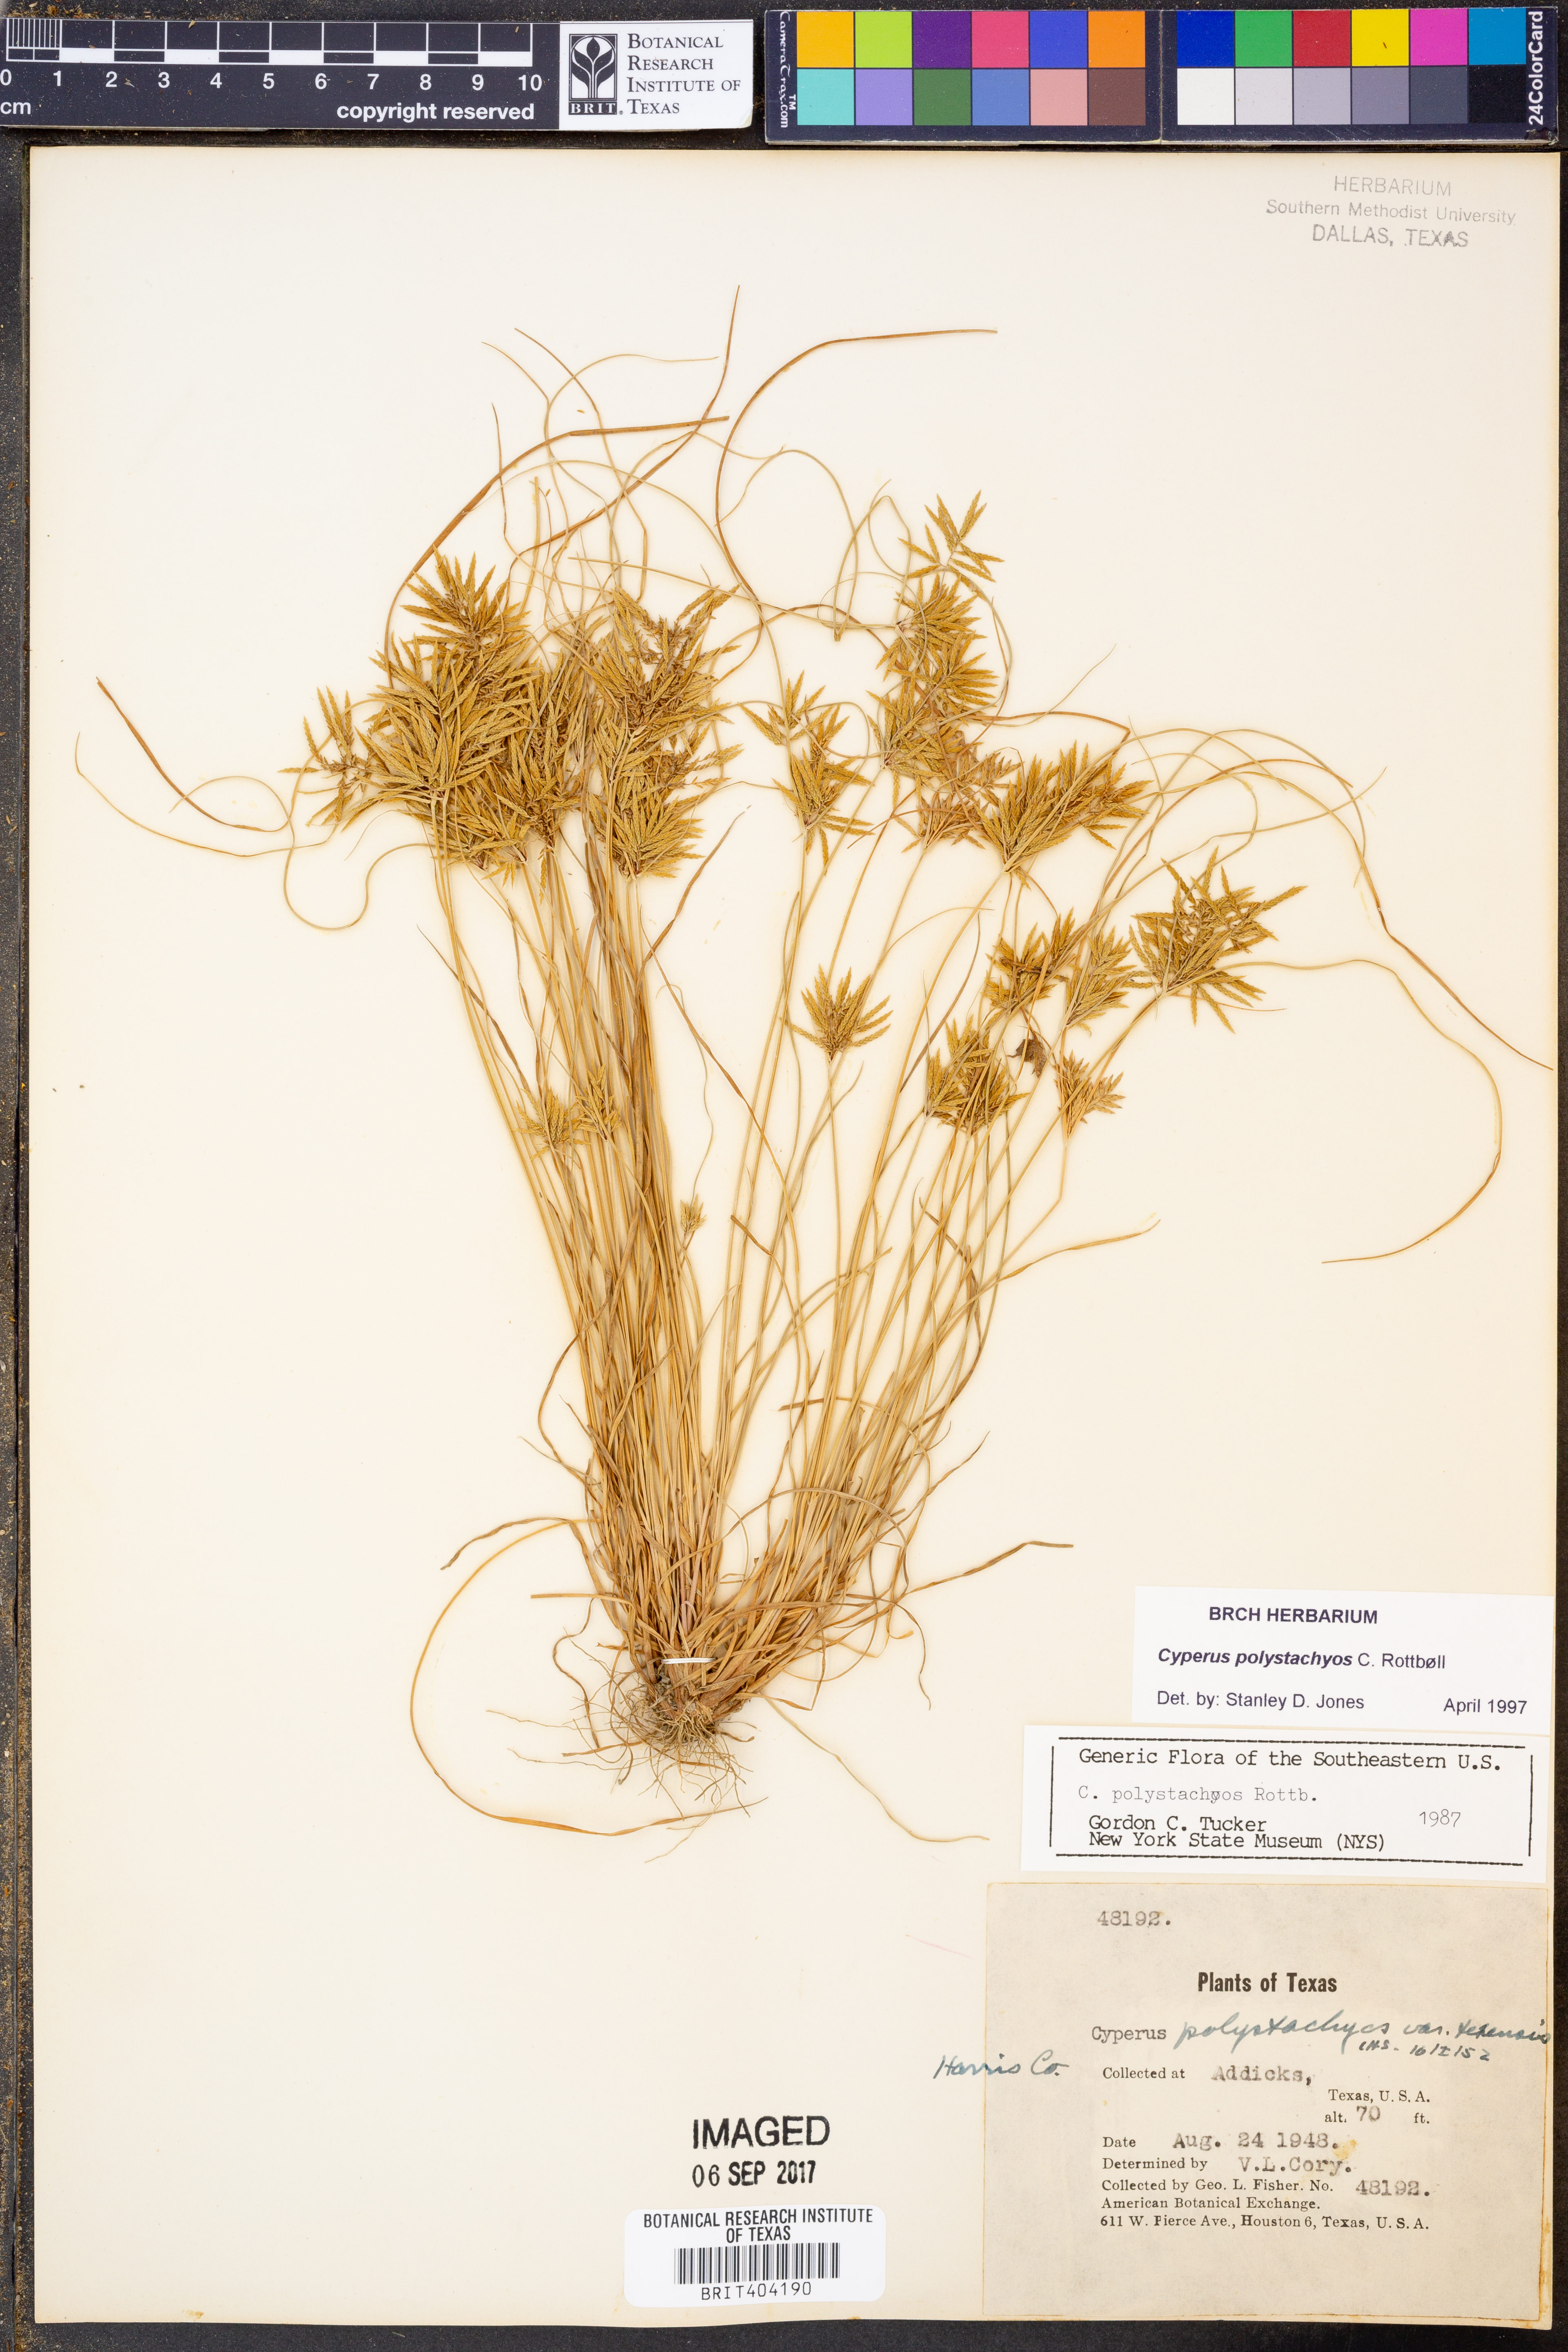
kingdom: Plantae
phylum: Tracheophyta
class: Liliopsida
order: Poales
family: Cyperaceae
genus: Cyperus
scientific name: Cyperus polystachyos
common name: Bunchy flat sedge
